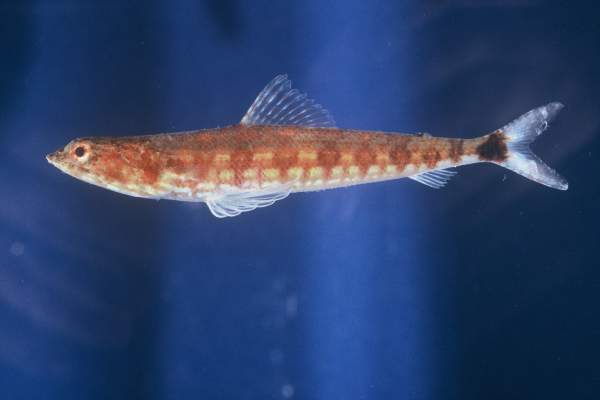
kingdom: Animalia
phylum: Chordata
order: Aulopiformes
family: Synodontidae
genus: Synodus
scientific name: Synodus jaculum
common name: Lighthouse lizardfish
